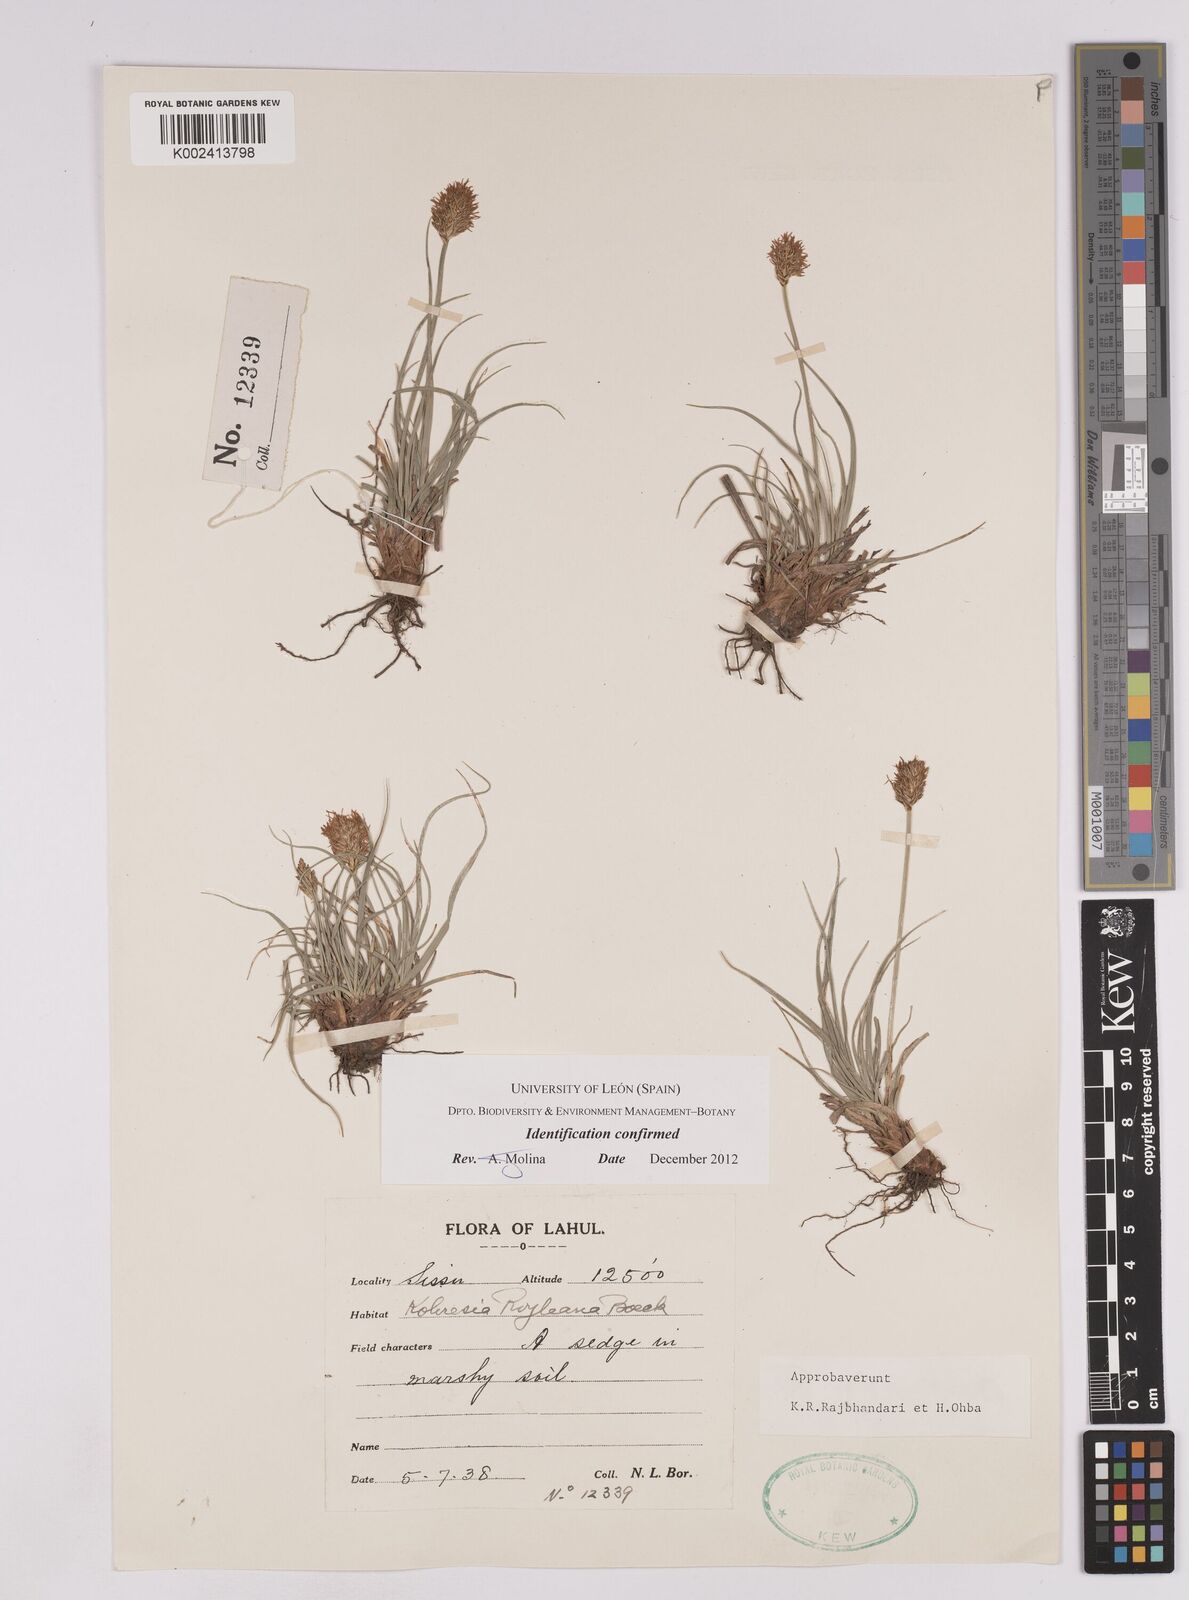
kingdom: Plantae
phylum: Tracheophyta
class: Liliopsida
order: Poales
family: Cyperaceae
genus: Carex
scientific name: Carex kokanica
